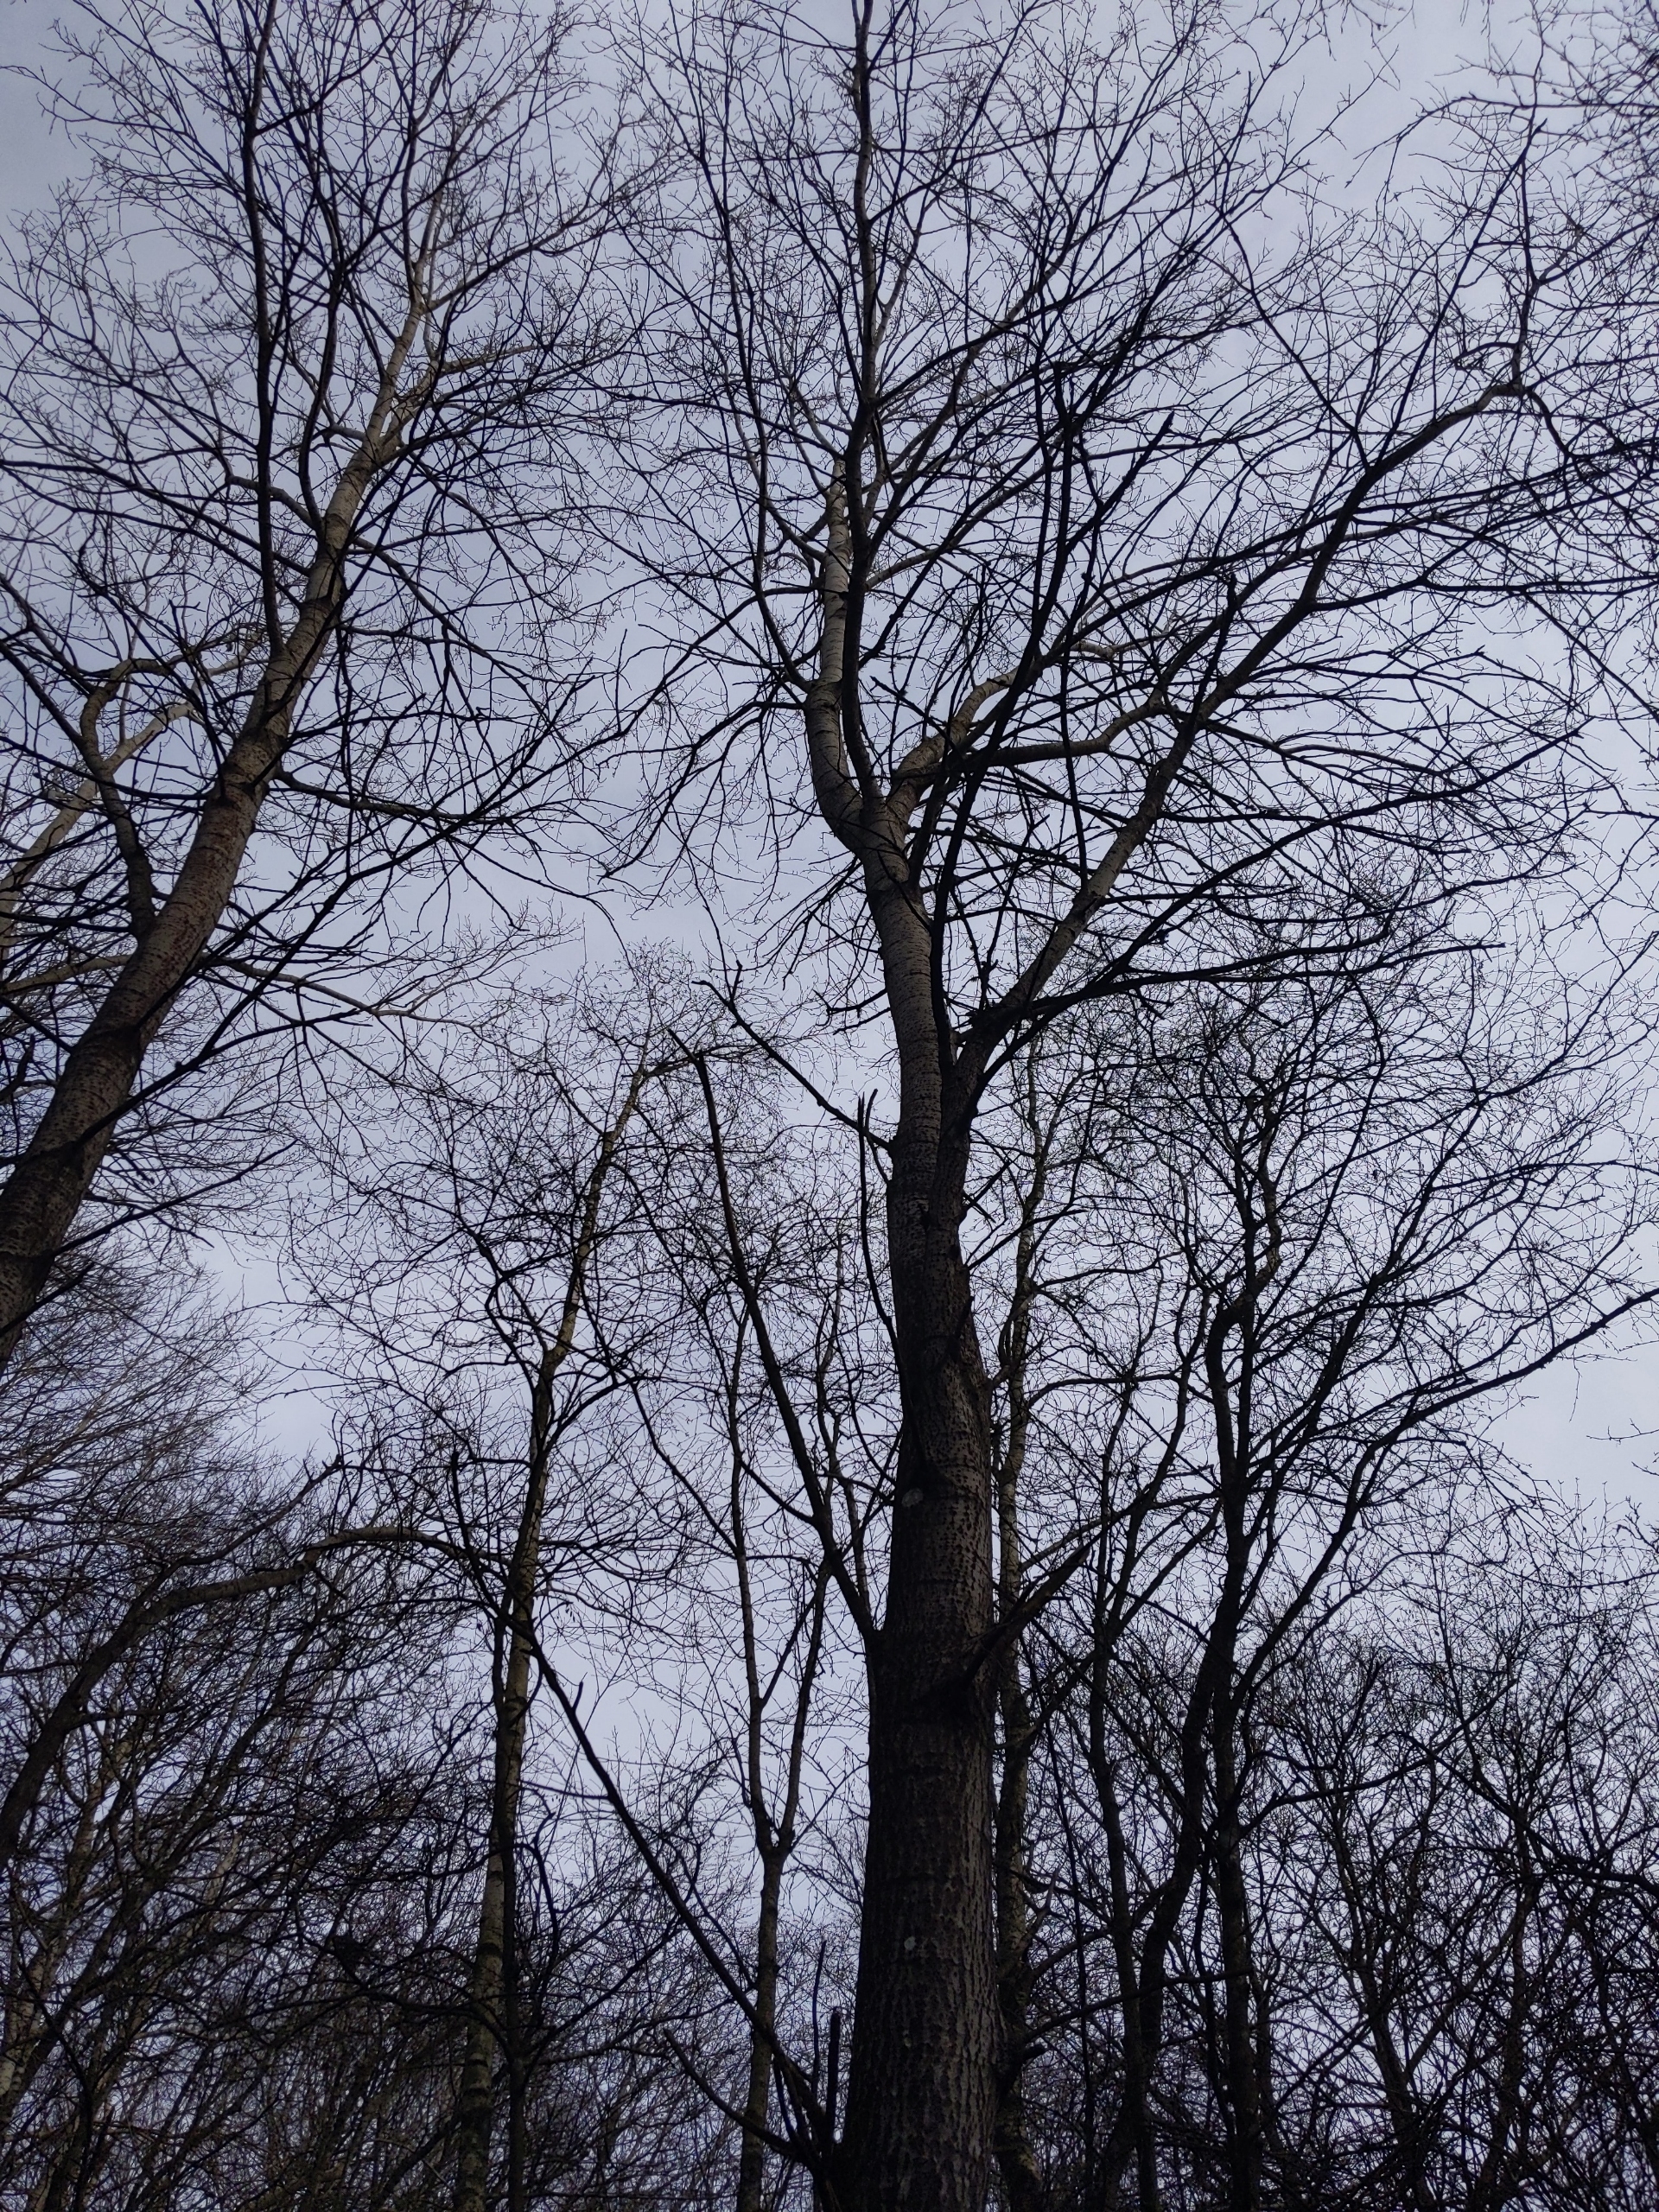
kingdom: Plantae
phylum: Tracheophyta
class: Magnoliopsida
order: Malpighiales
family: Salicaceae
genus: Populus
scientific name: Populus tremula
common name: Bævreasp
